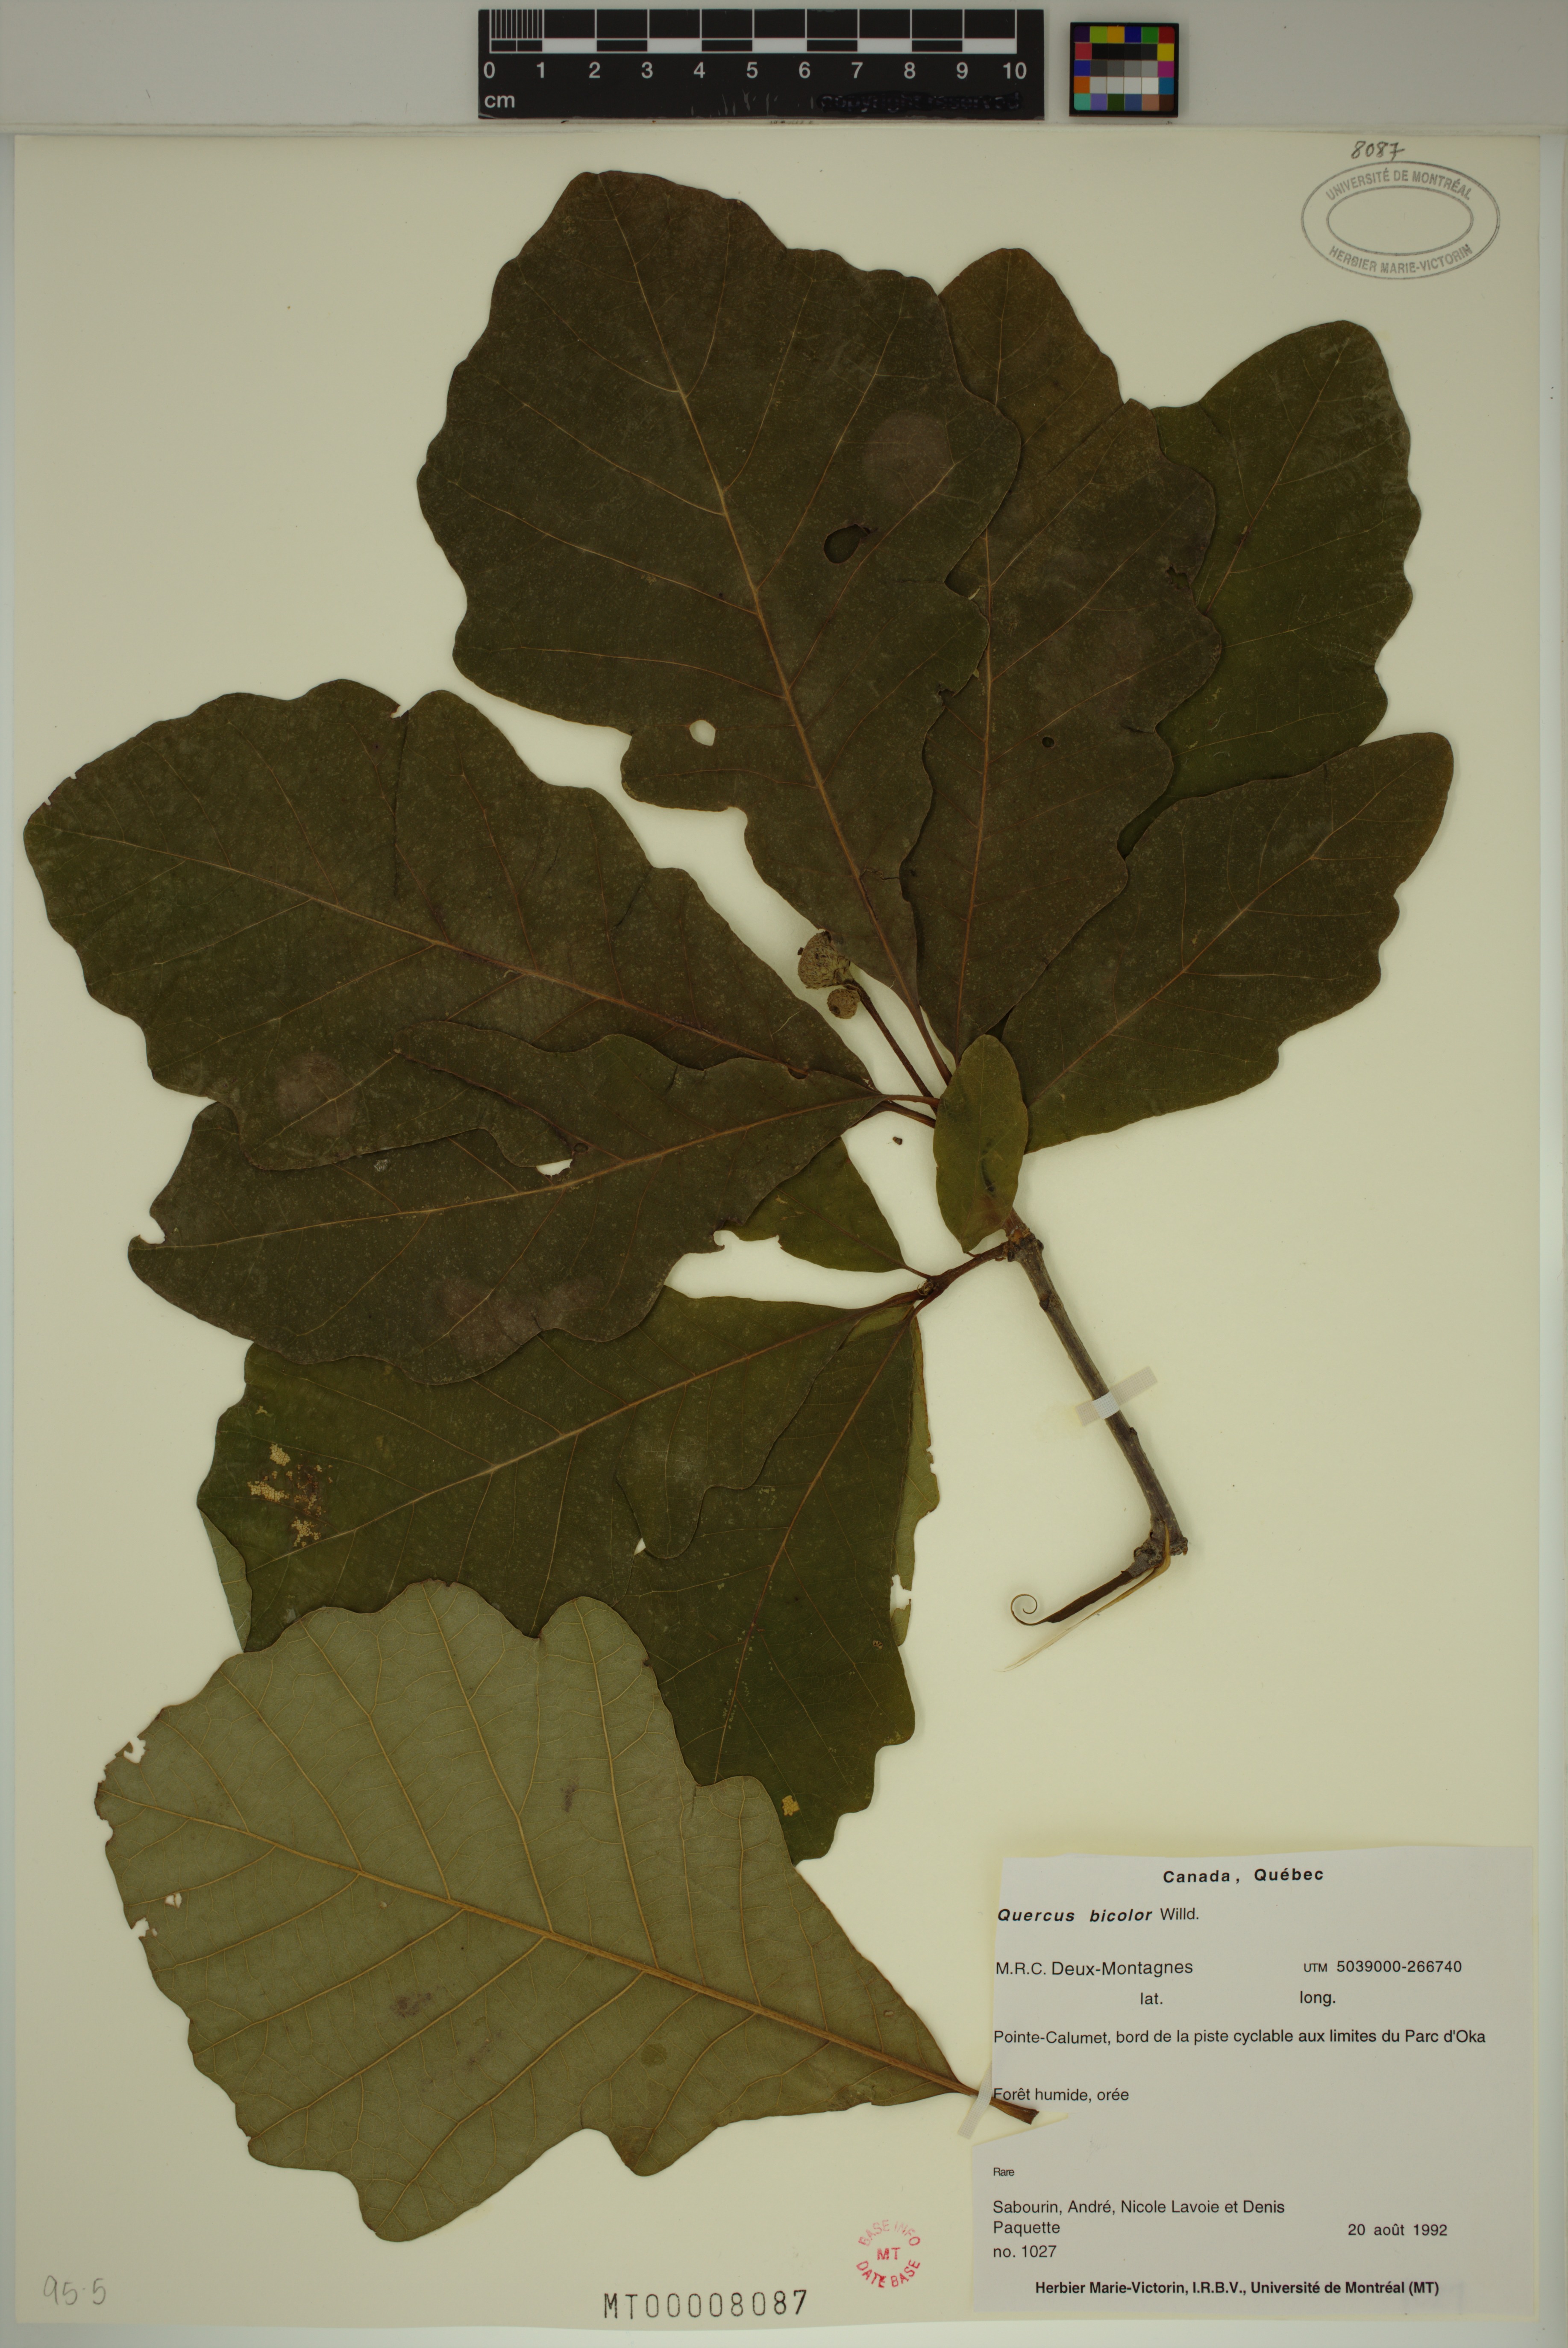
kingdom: Plantae
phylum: Tracheophyta
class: Magnoliopsida
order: Fagales
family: Fagaceae
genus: Quercus
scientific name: Quercus bicolor
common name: Swamp white oak
